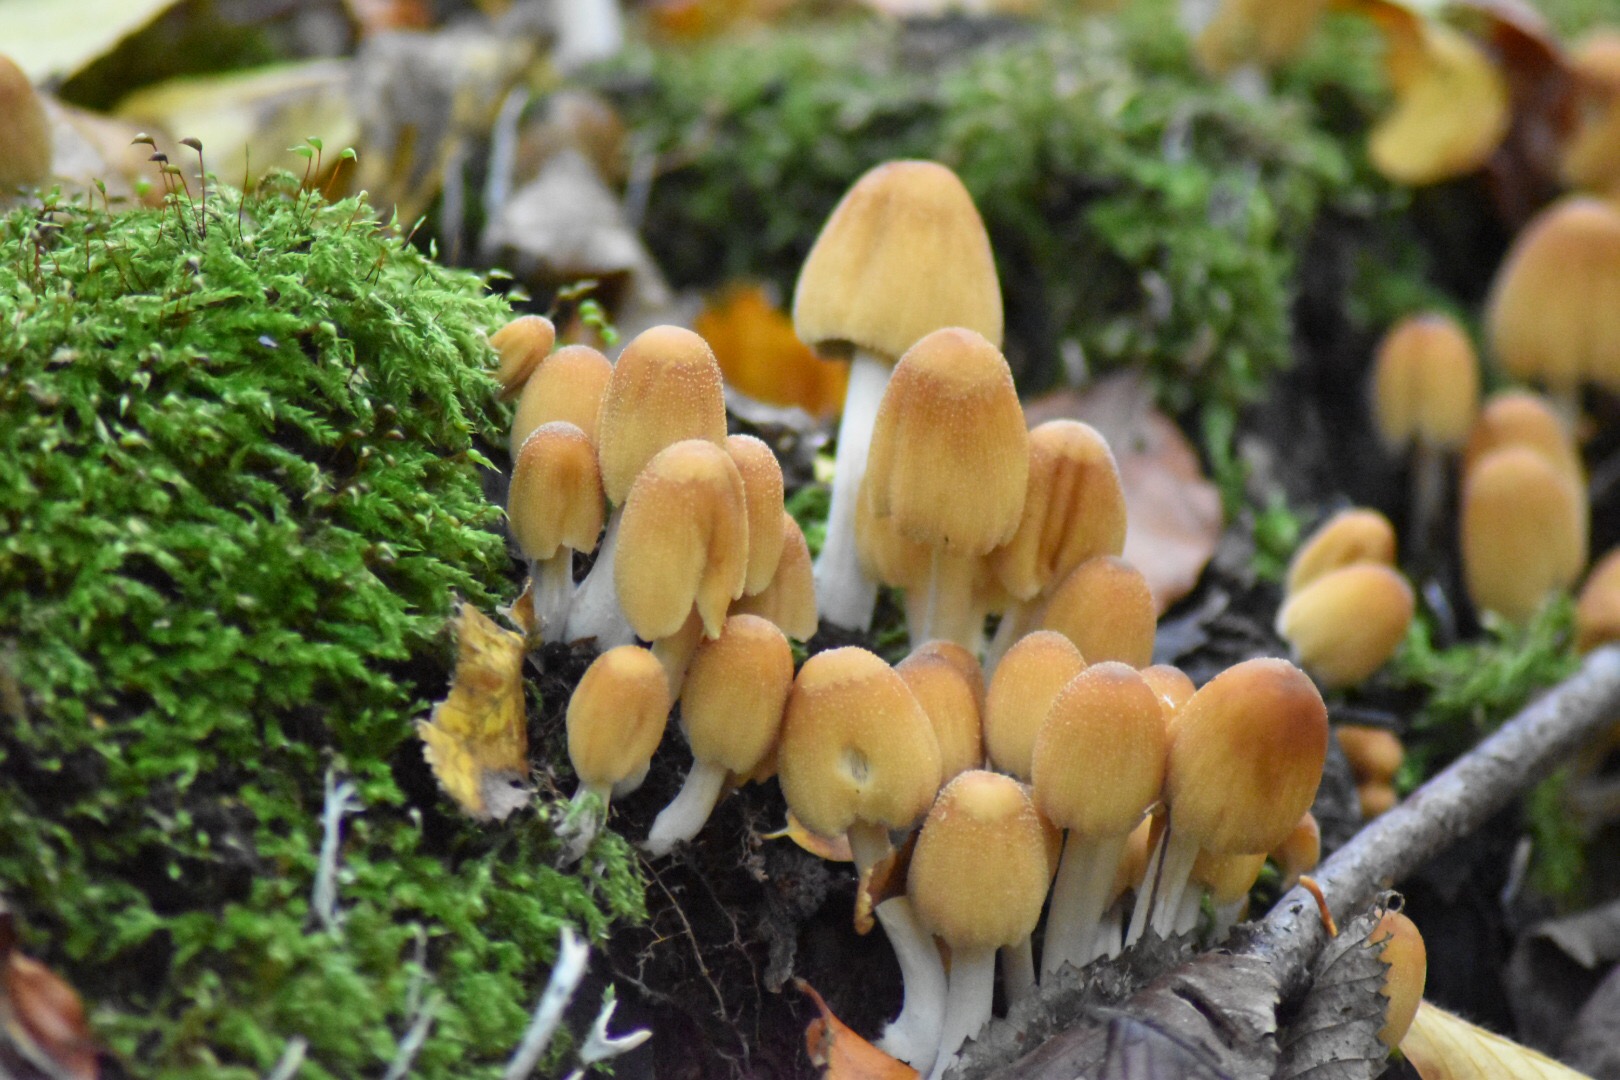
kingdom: Fungi
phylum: Basidiomycota
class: Agaricomycetes
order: Agaricales
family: Psathyrellaceae
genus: Coprinellus
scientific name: Coprinellus micaceus
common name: glimmer-blækhat
